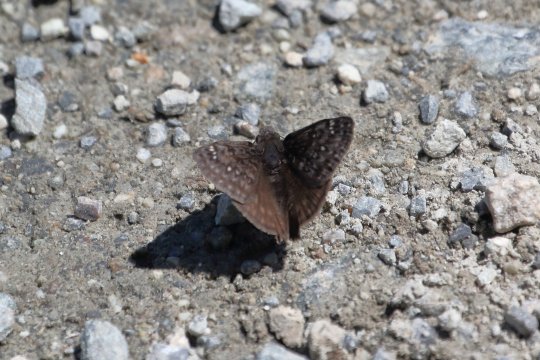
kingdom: Animalia
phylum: Arthropoda
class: Insecta
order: Lepidoptera
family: Hesperiidae
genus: Erynnis
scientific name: Erynnis propertius
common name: Propertius Duskywing
